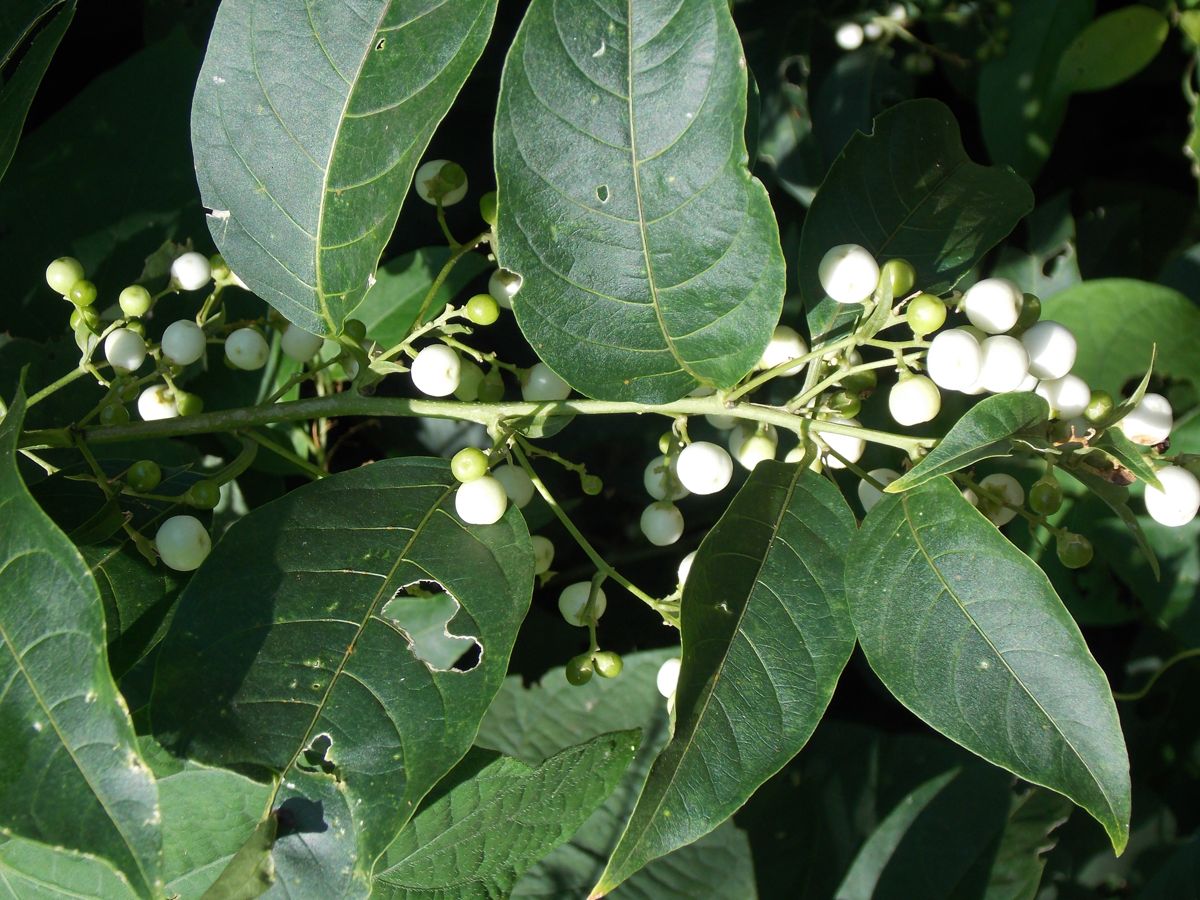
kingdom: Plantae
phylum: Tracheophyta
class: Magnoliopsida
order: Solanales
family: Solanaceae
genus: Cestrum
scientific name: Cestrum nocturnum
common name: Night jessamine
